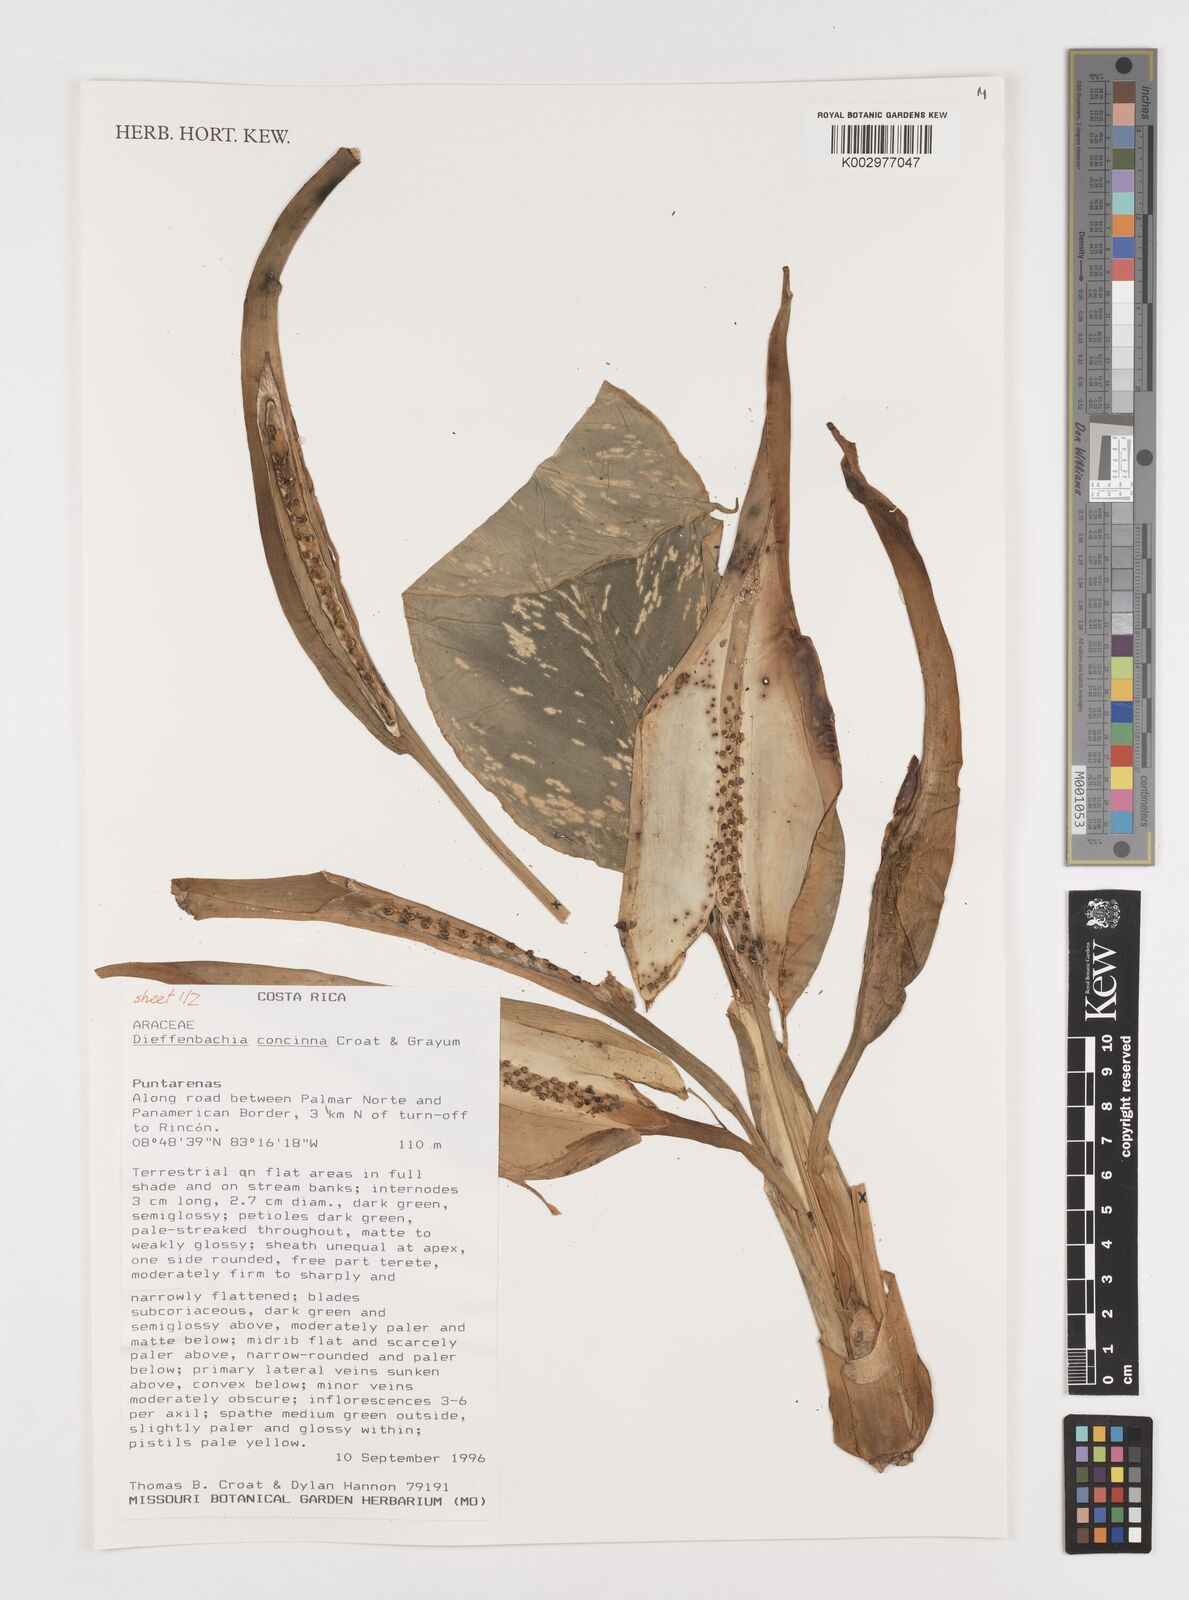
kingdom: Plantae
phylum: Tracheophyta
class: Liliopsida
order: Alismatales
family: Araceae
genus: Dieffenbachia
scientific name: Dieffenbachia concinna
